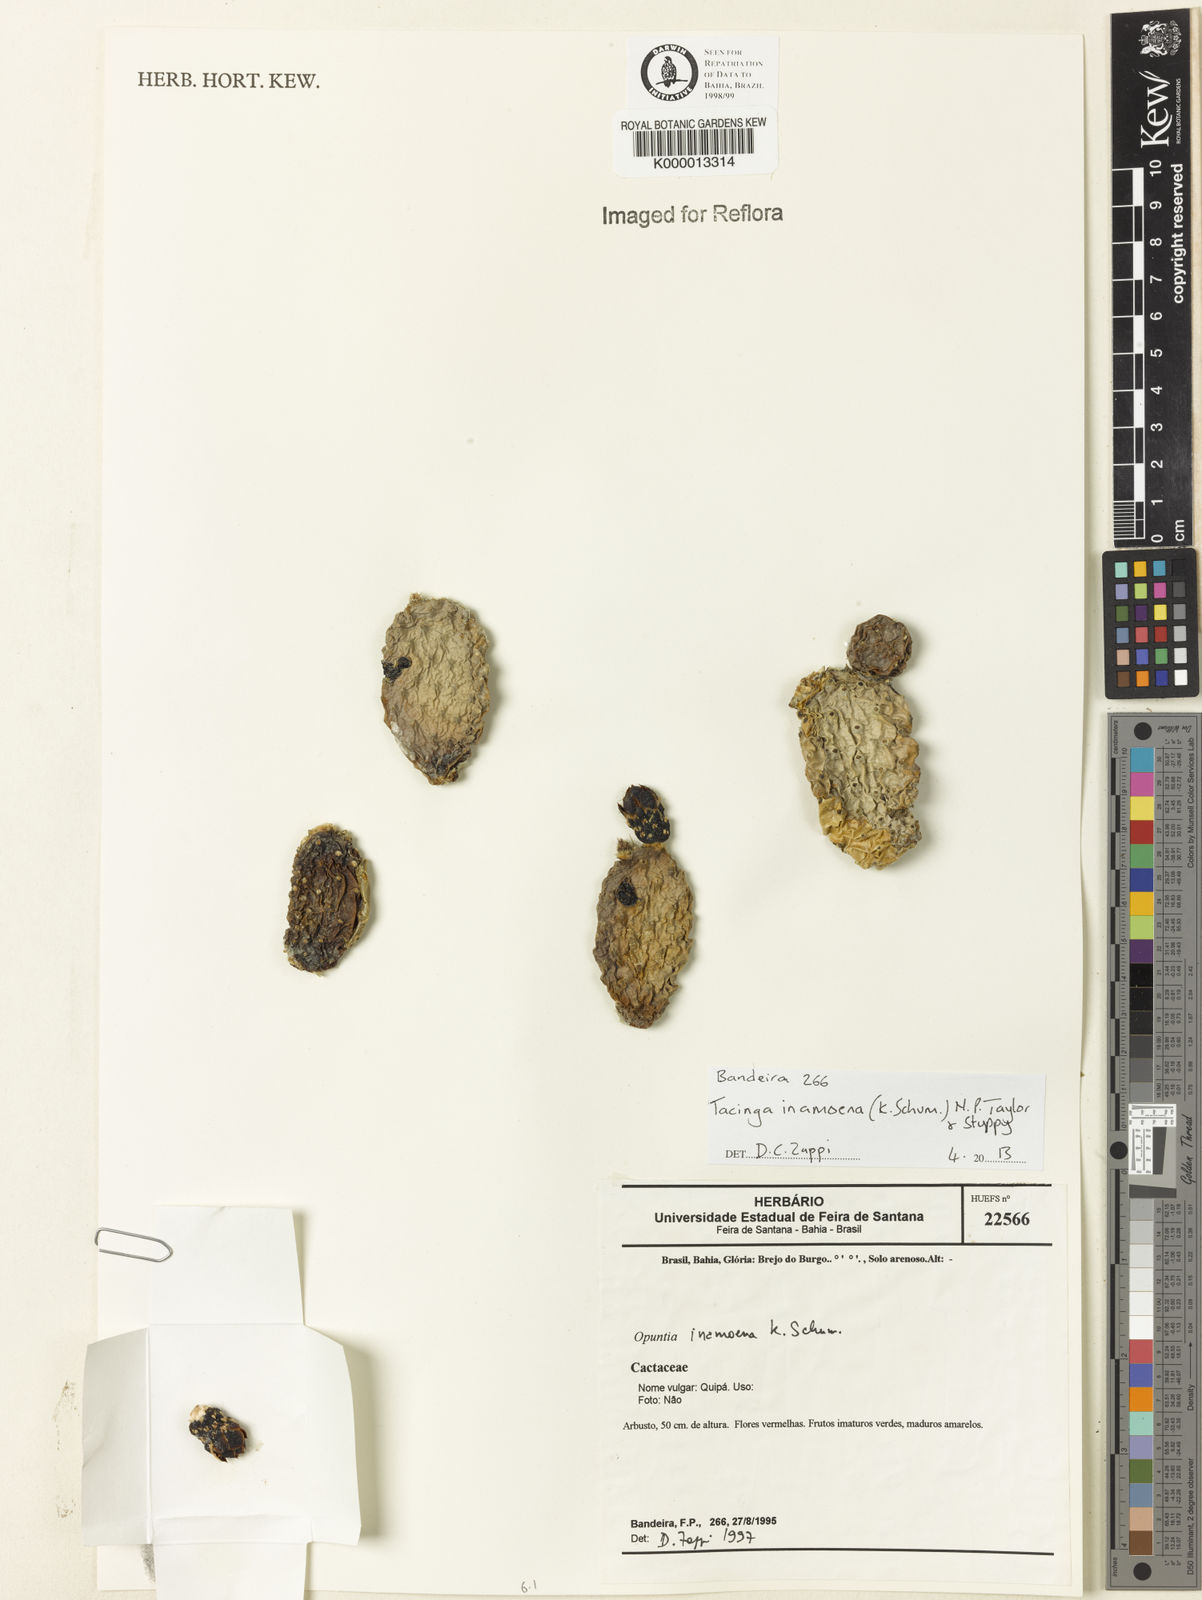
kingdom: Plantae
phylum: Tracheophyta
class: Magnoliopsida
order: Caryophyllales
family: Cactaceae
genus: Tacinga
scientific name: Tacinga inamoena
